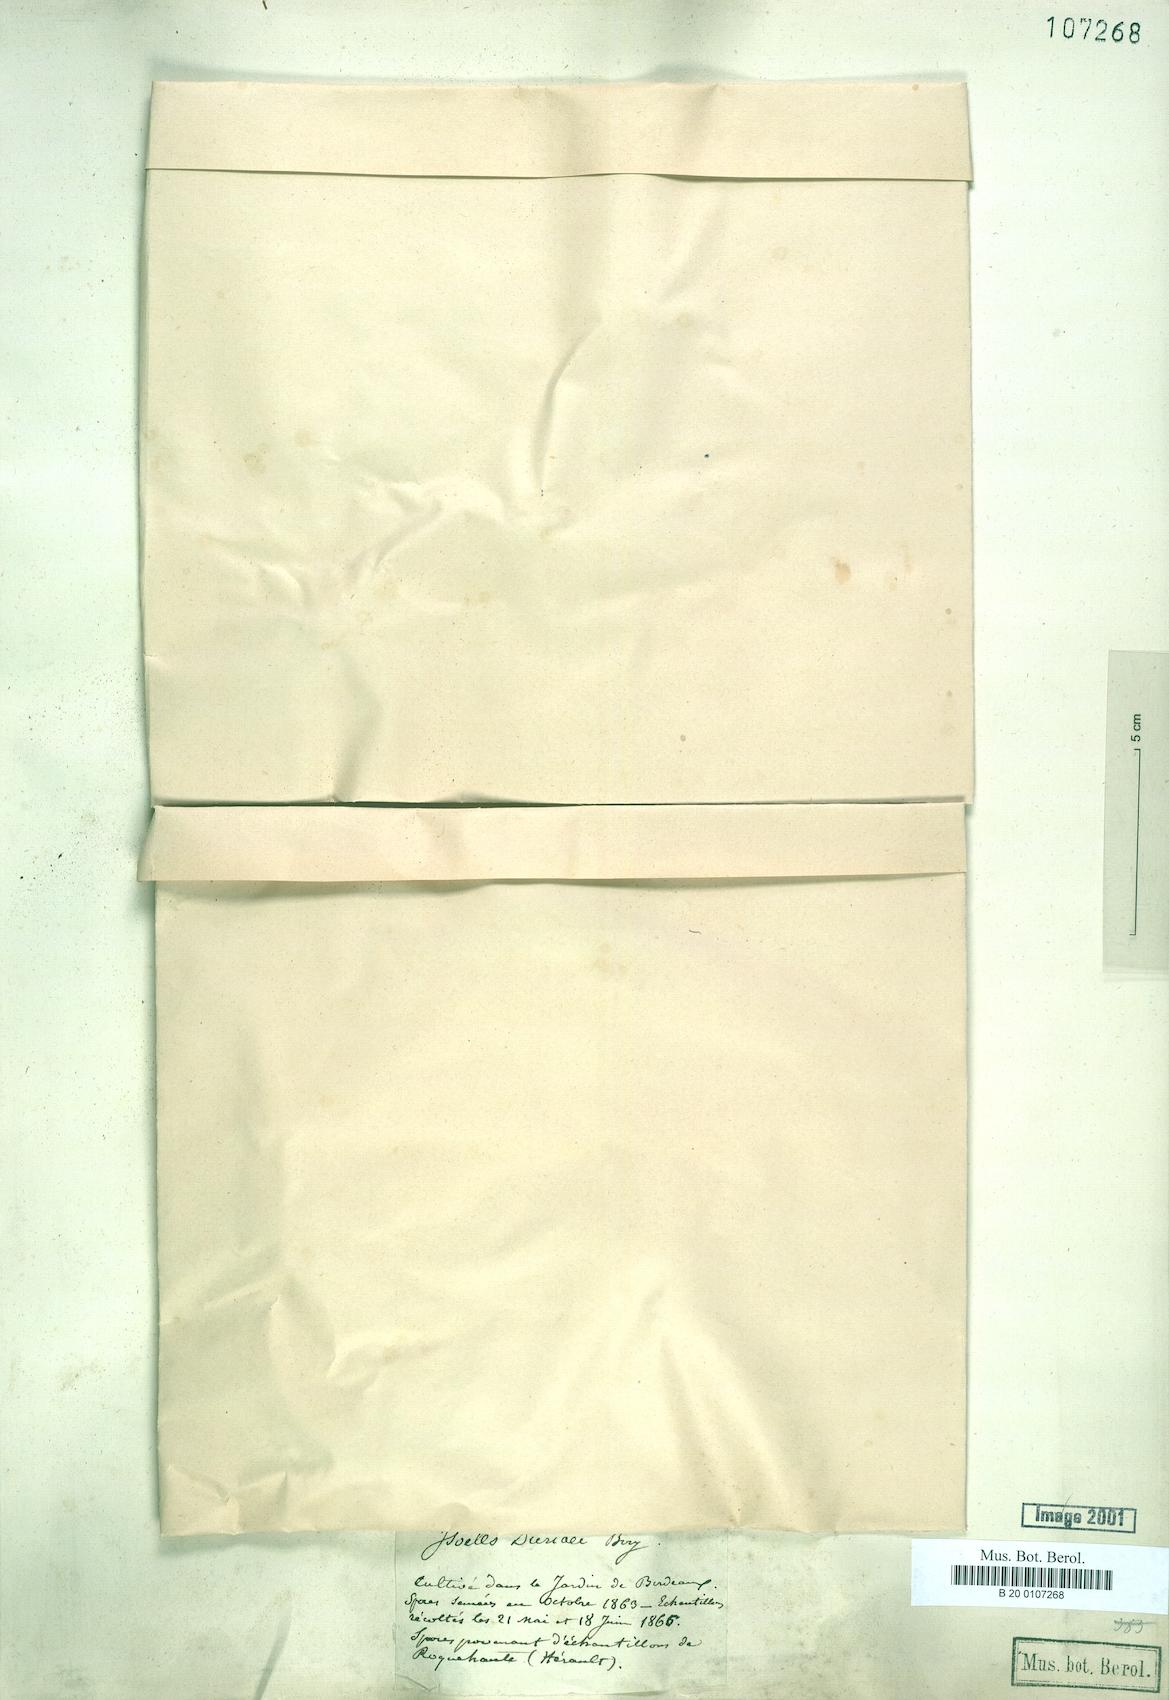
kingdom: Plantae
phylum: Tracheophyta
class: Lycopodiopsida
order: Isoetales
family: Isoetaceae
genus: Isoetes
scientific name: Isoetes duriei
